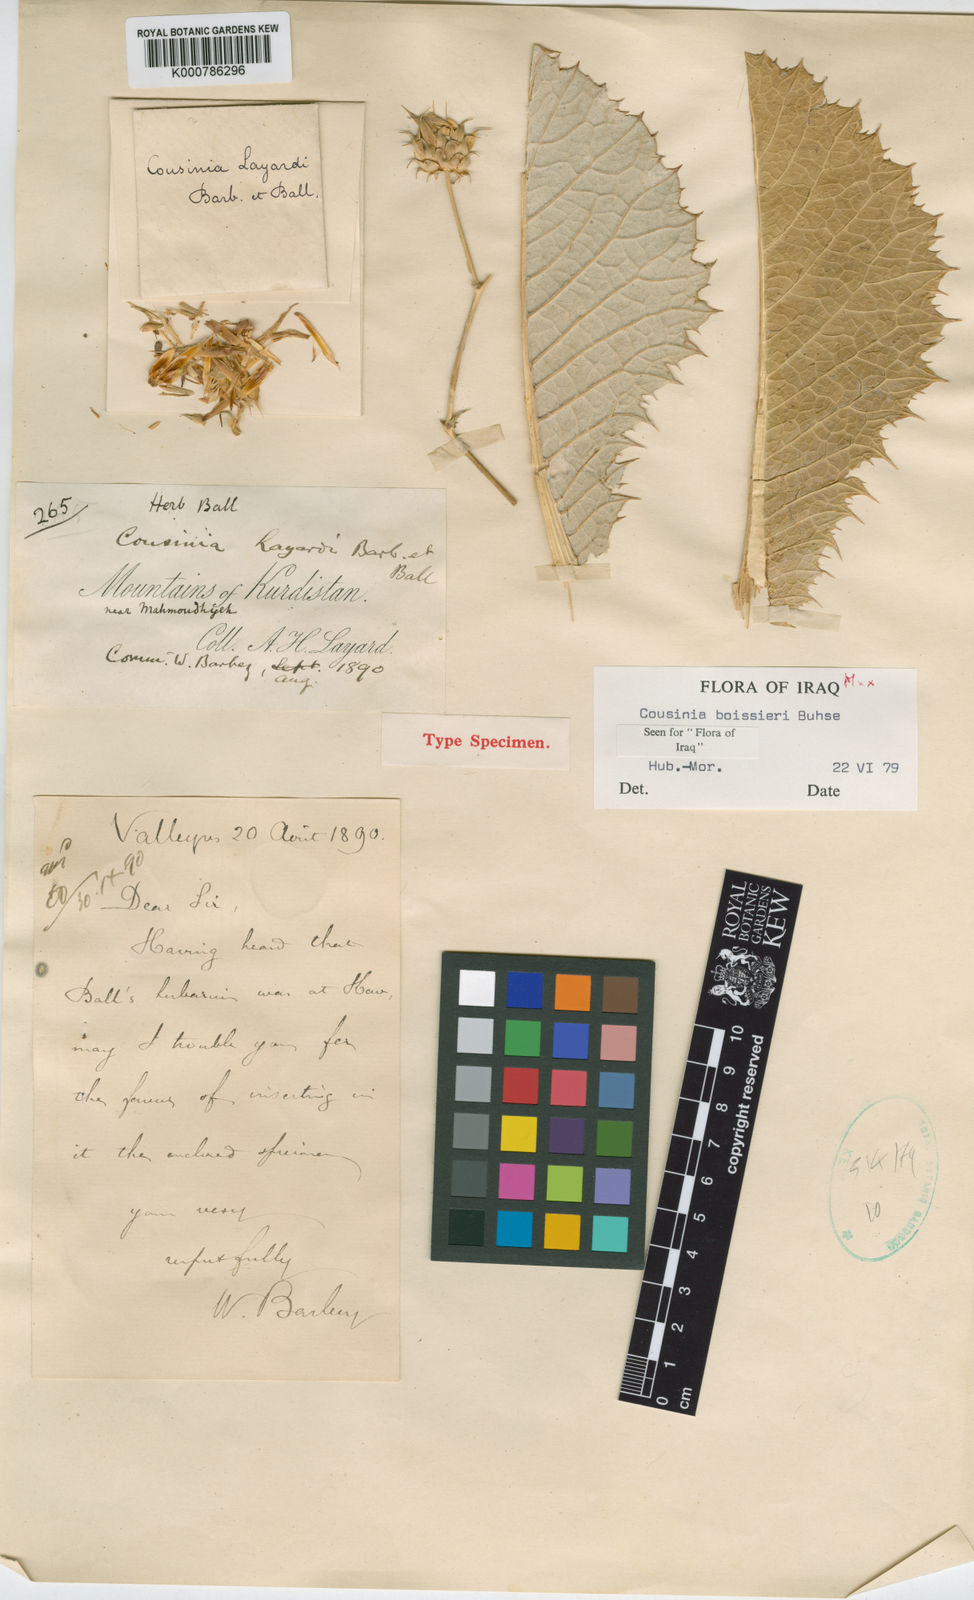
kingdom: Plantae
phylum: Tracheophyta
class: Magnoliopsida
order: Asterales
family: Asteraceae
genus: Cousinia
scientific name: Cousinia boissieri
